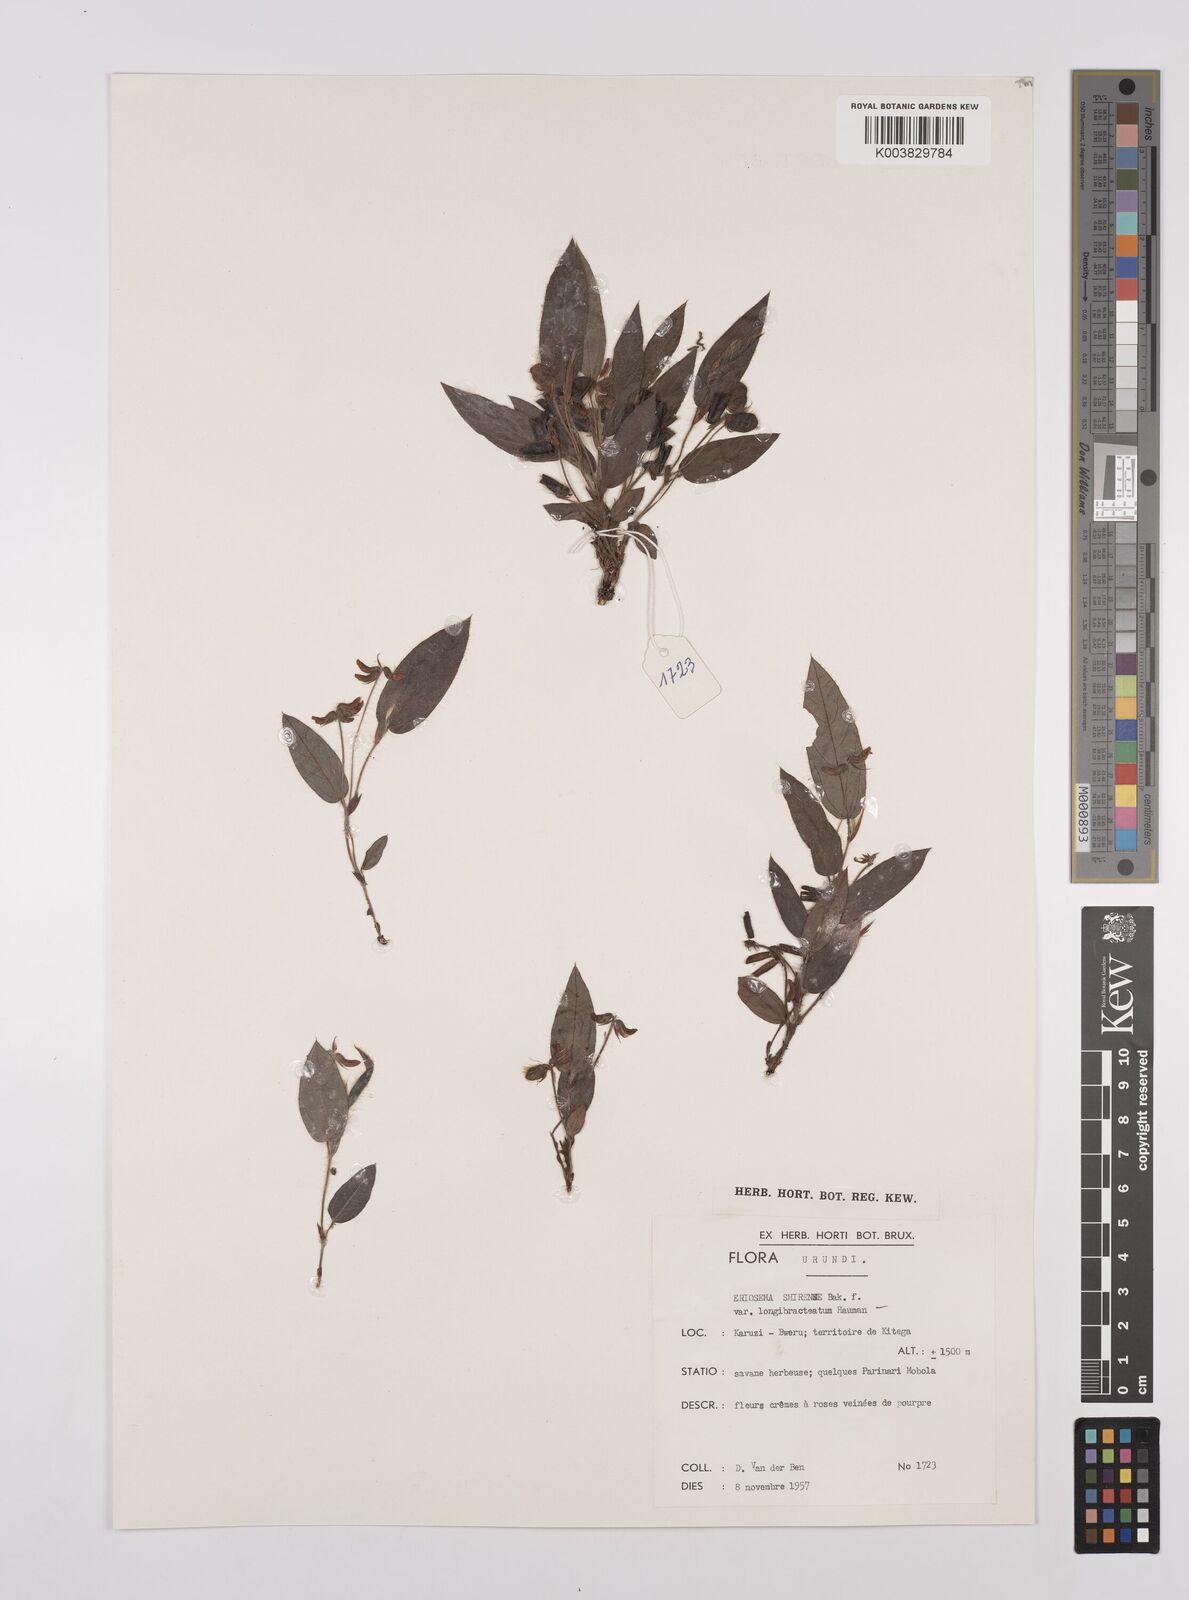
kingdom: Plantae
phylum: Tracheophyta
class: Magnoliopsida
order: Fabales
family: Fabaceae
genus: Eriosema
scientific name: Eriosema shirense
